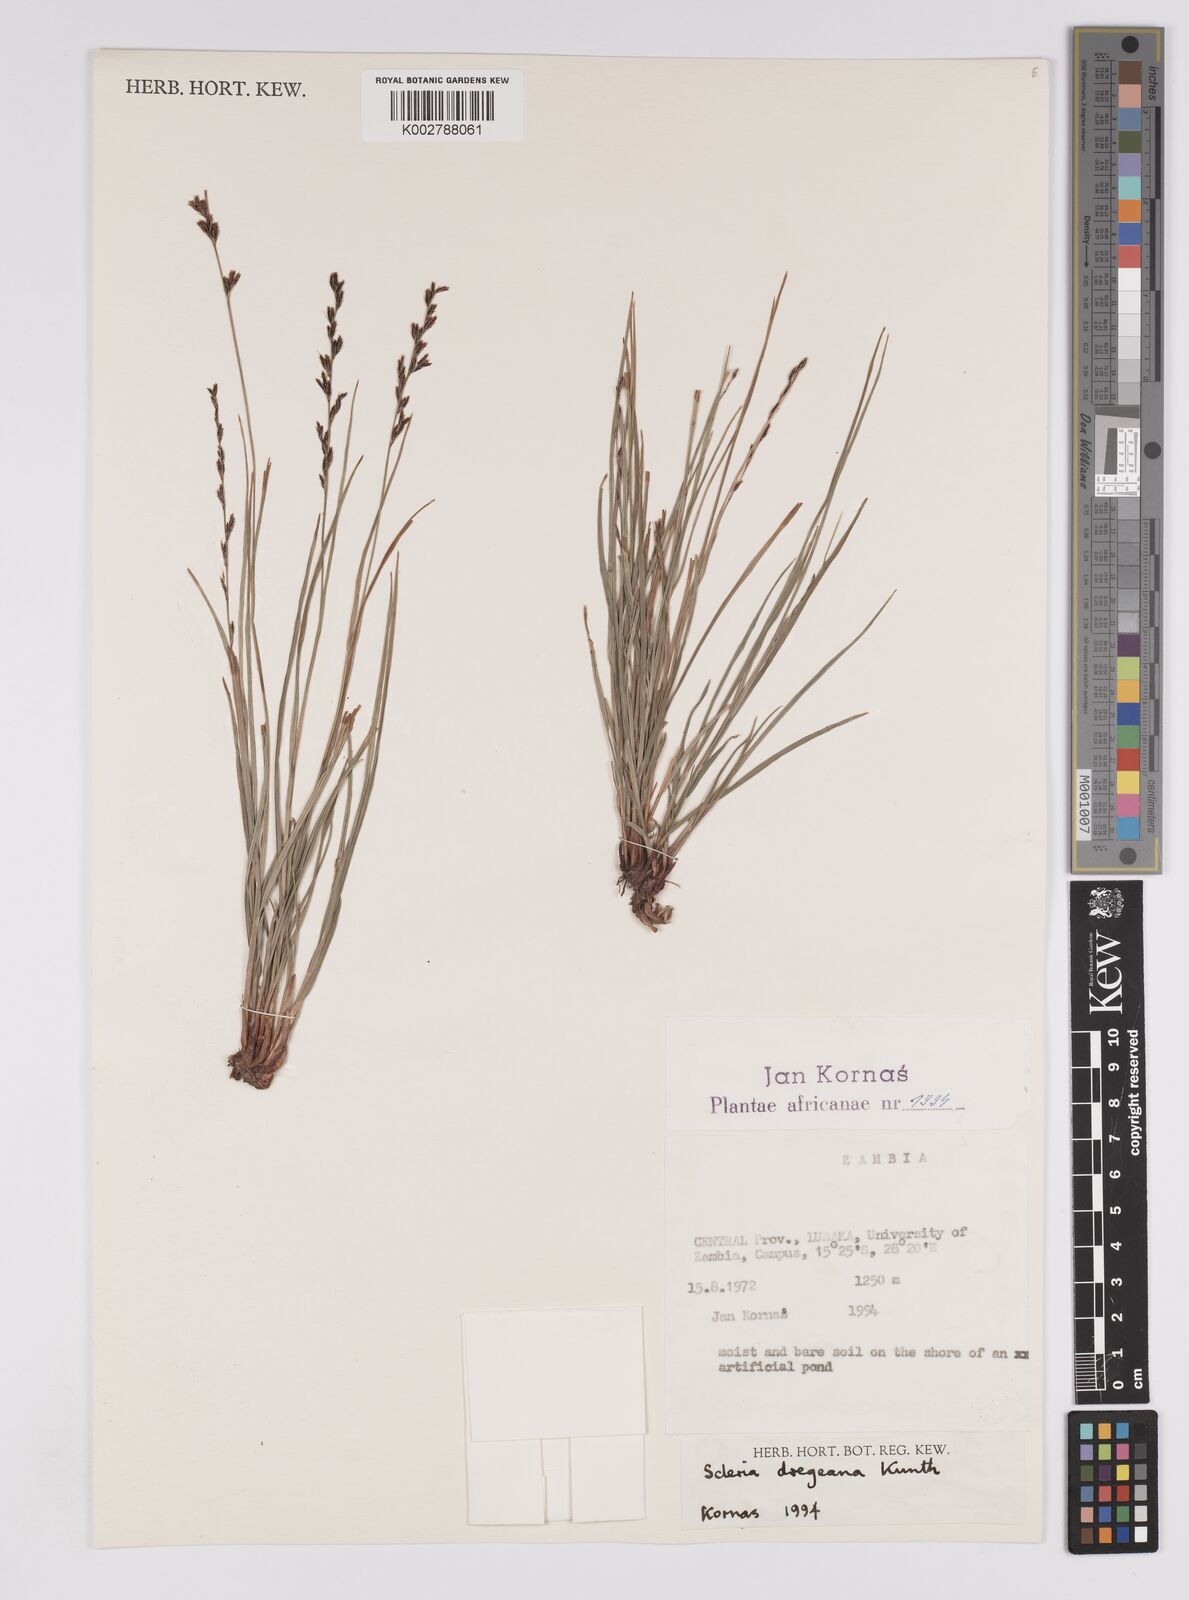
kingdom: Plantae
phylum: Tracheophyta
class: Liliopsida
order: Poales
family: Cyperaceae
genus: Scleria
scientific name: Scleria dregeana
